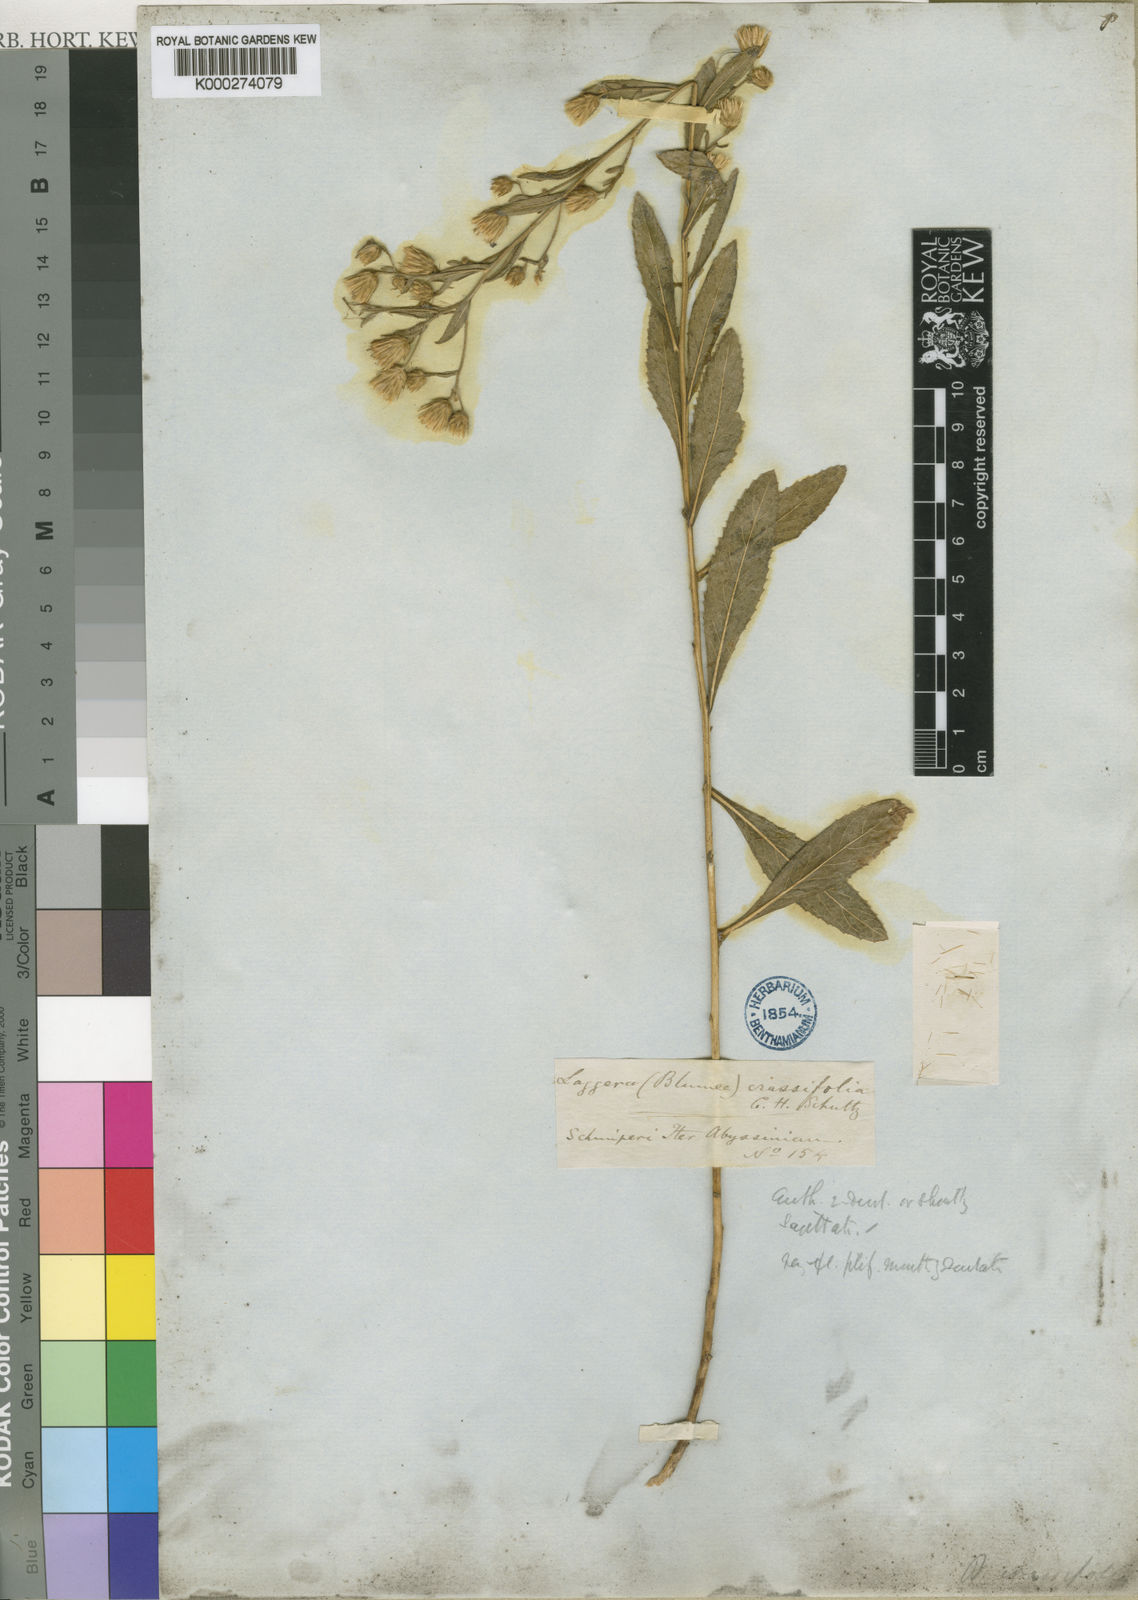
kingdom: Plantae
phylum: Tracheophyta
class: Magnoliopsida
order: Asterales
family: Asteraceae
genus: Laggera
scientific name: Laggera
